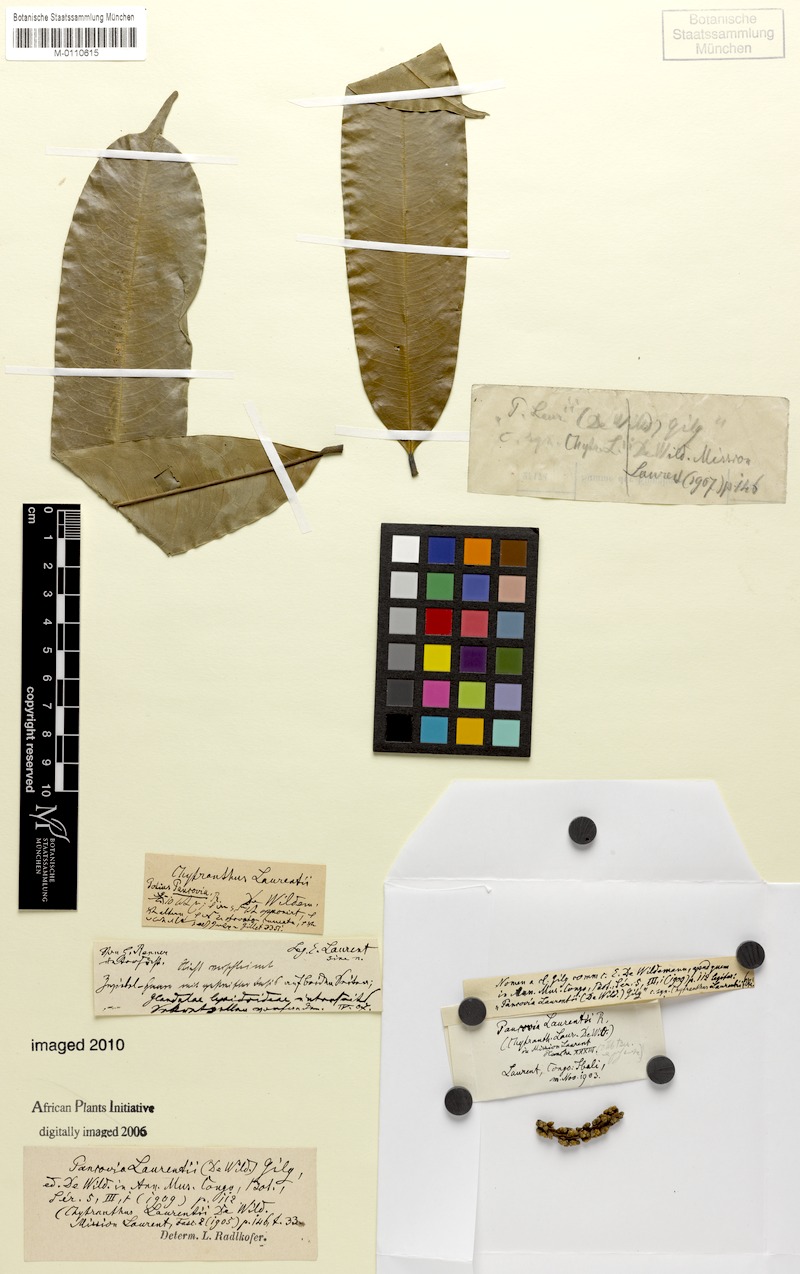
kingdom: Plantae
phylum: Tracheophyta
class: Magnoliopsida
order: Sapindales
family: Sapindaceae
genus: Pancovia
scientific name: Pancovia laurentii
